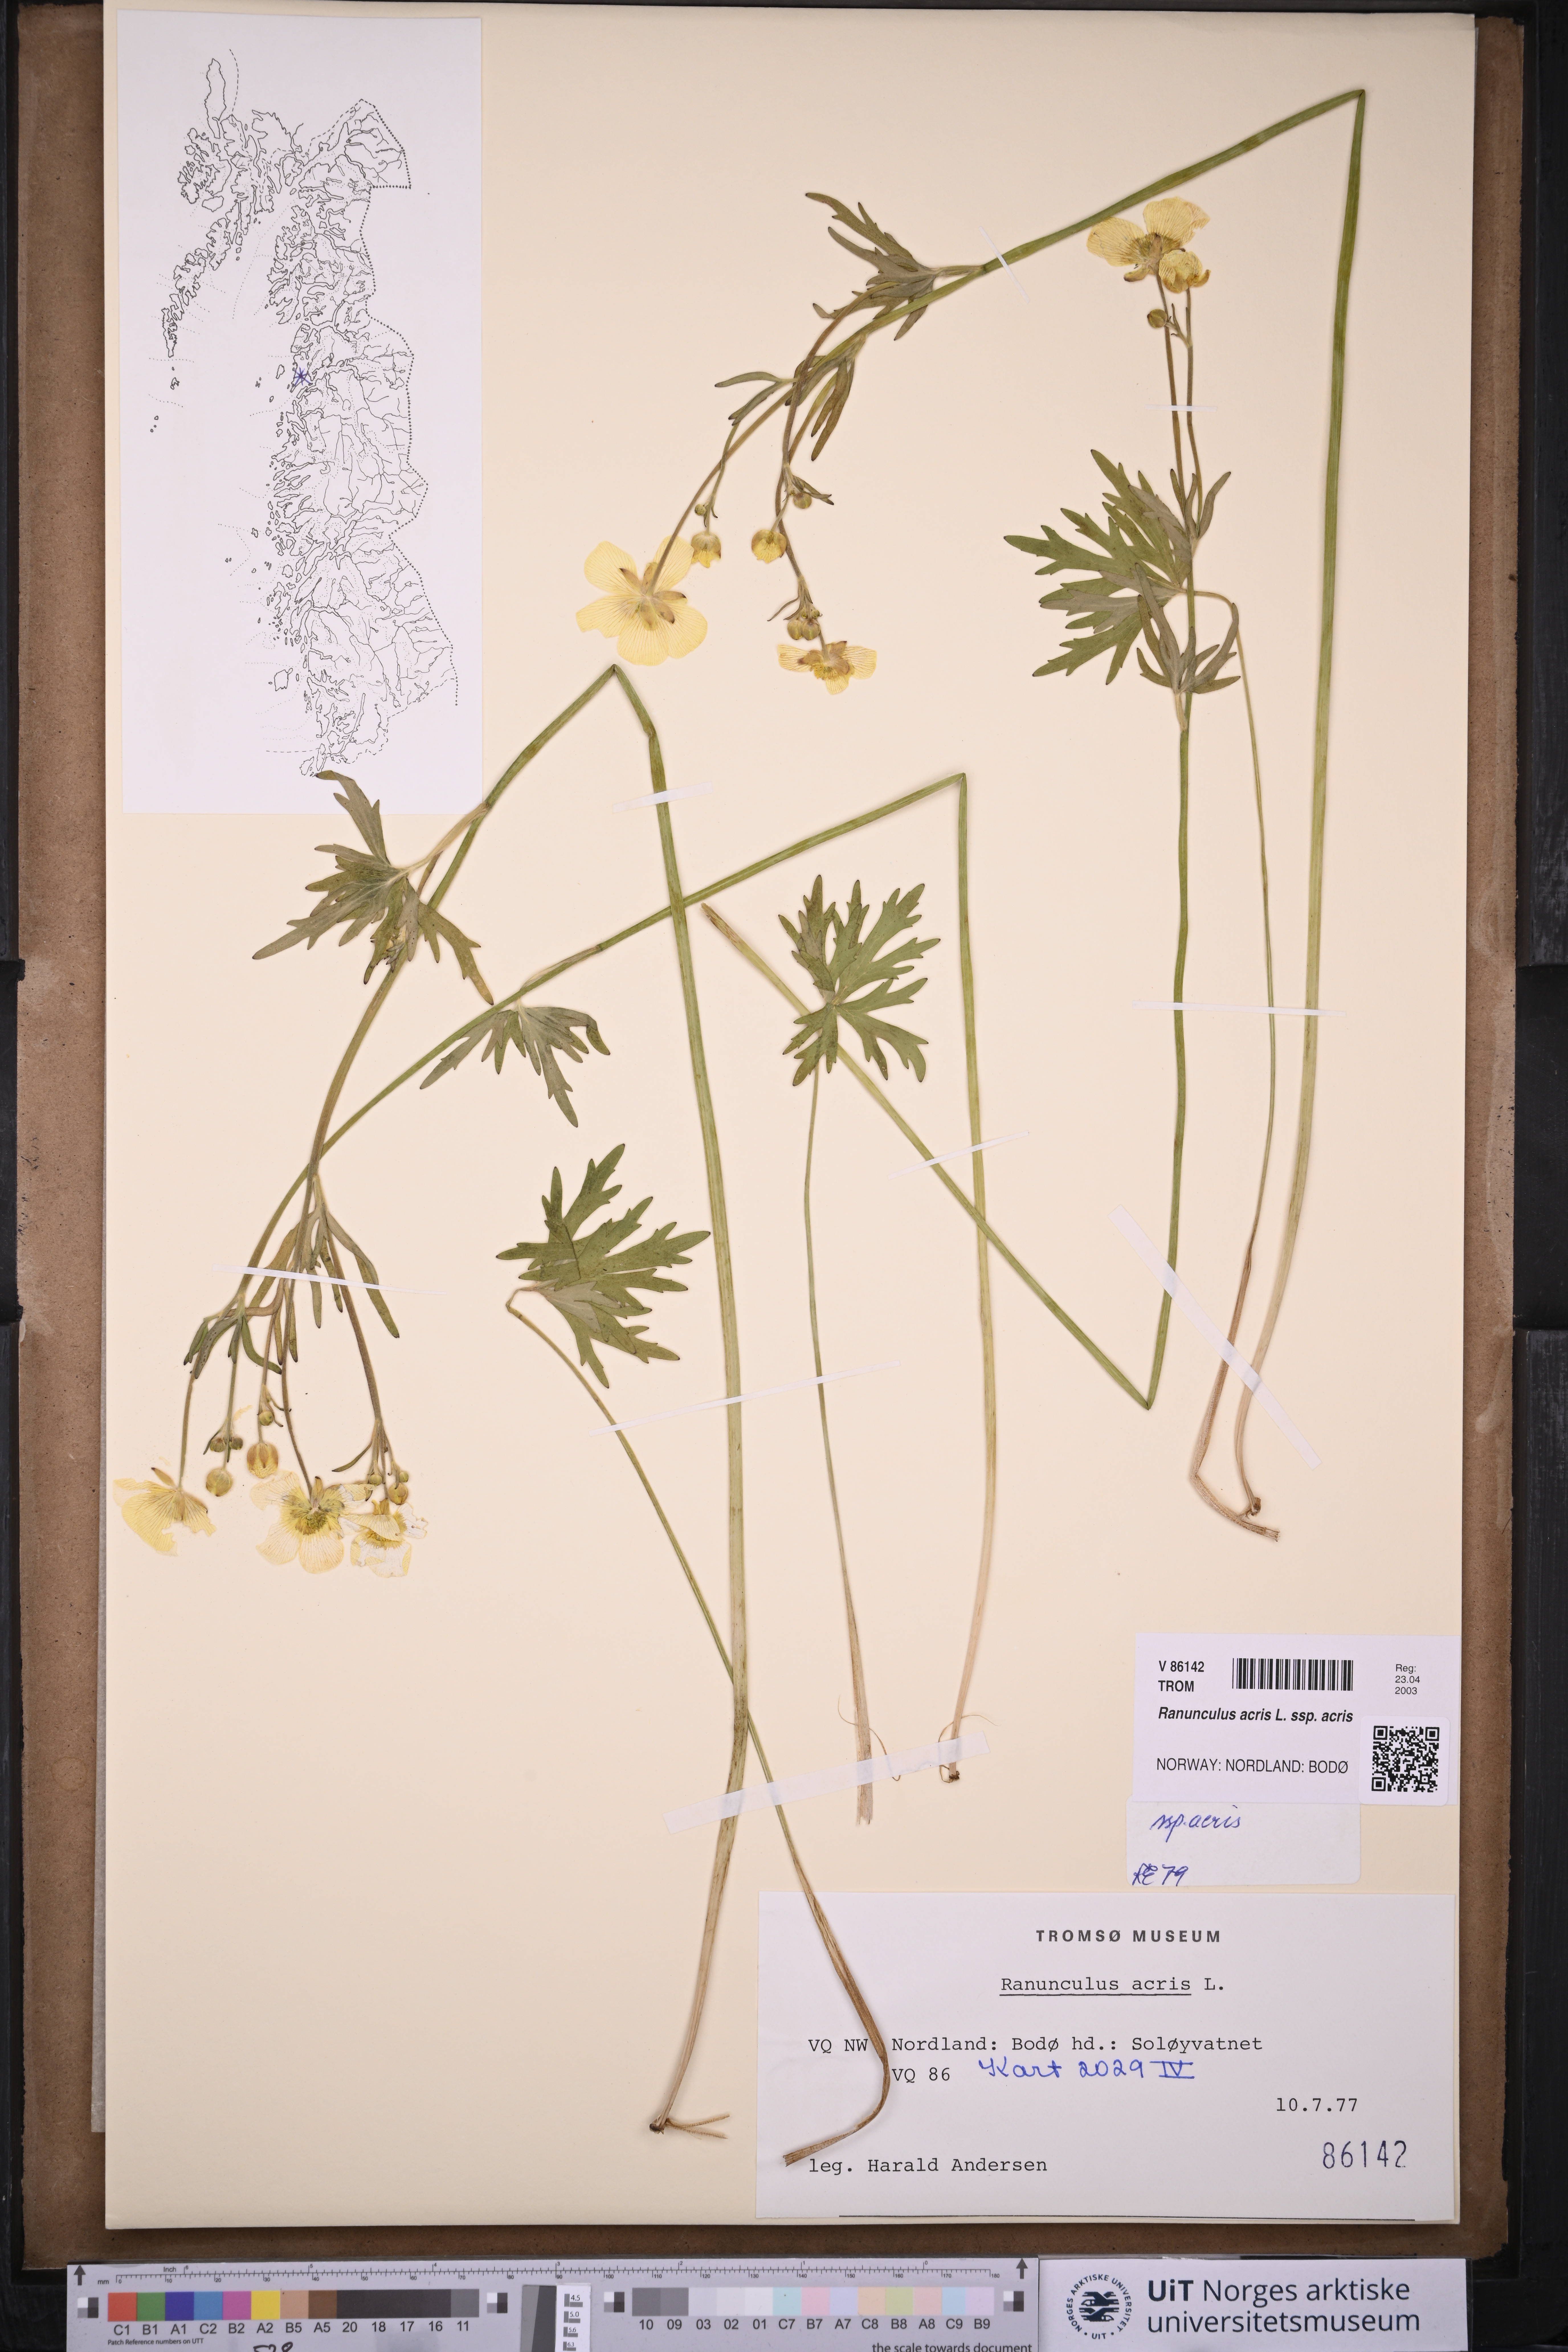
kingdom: Plantae
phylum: Tracheophyta
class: Magnoliopsida
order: Ranunculales
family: Ranunculaceae
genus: Ranunculus
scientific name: Ranunculus acris
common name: Meadow buttercup
